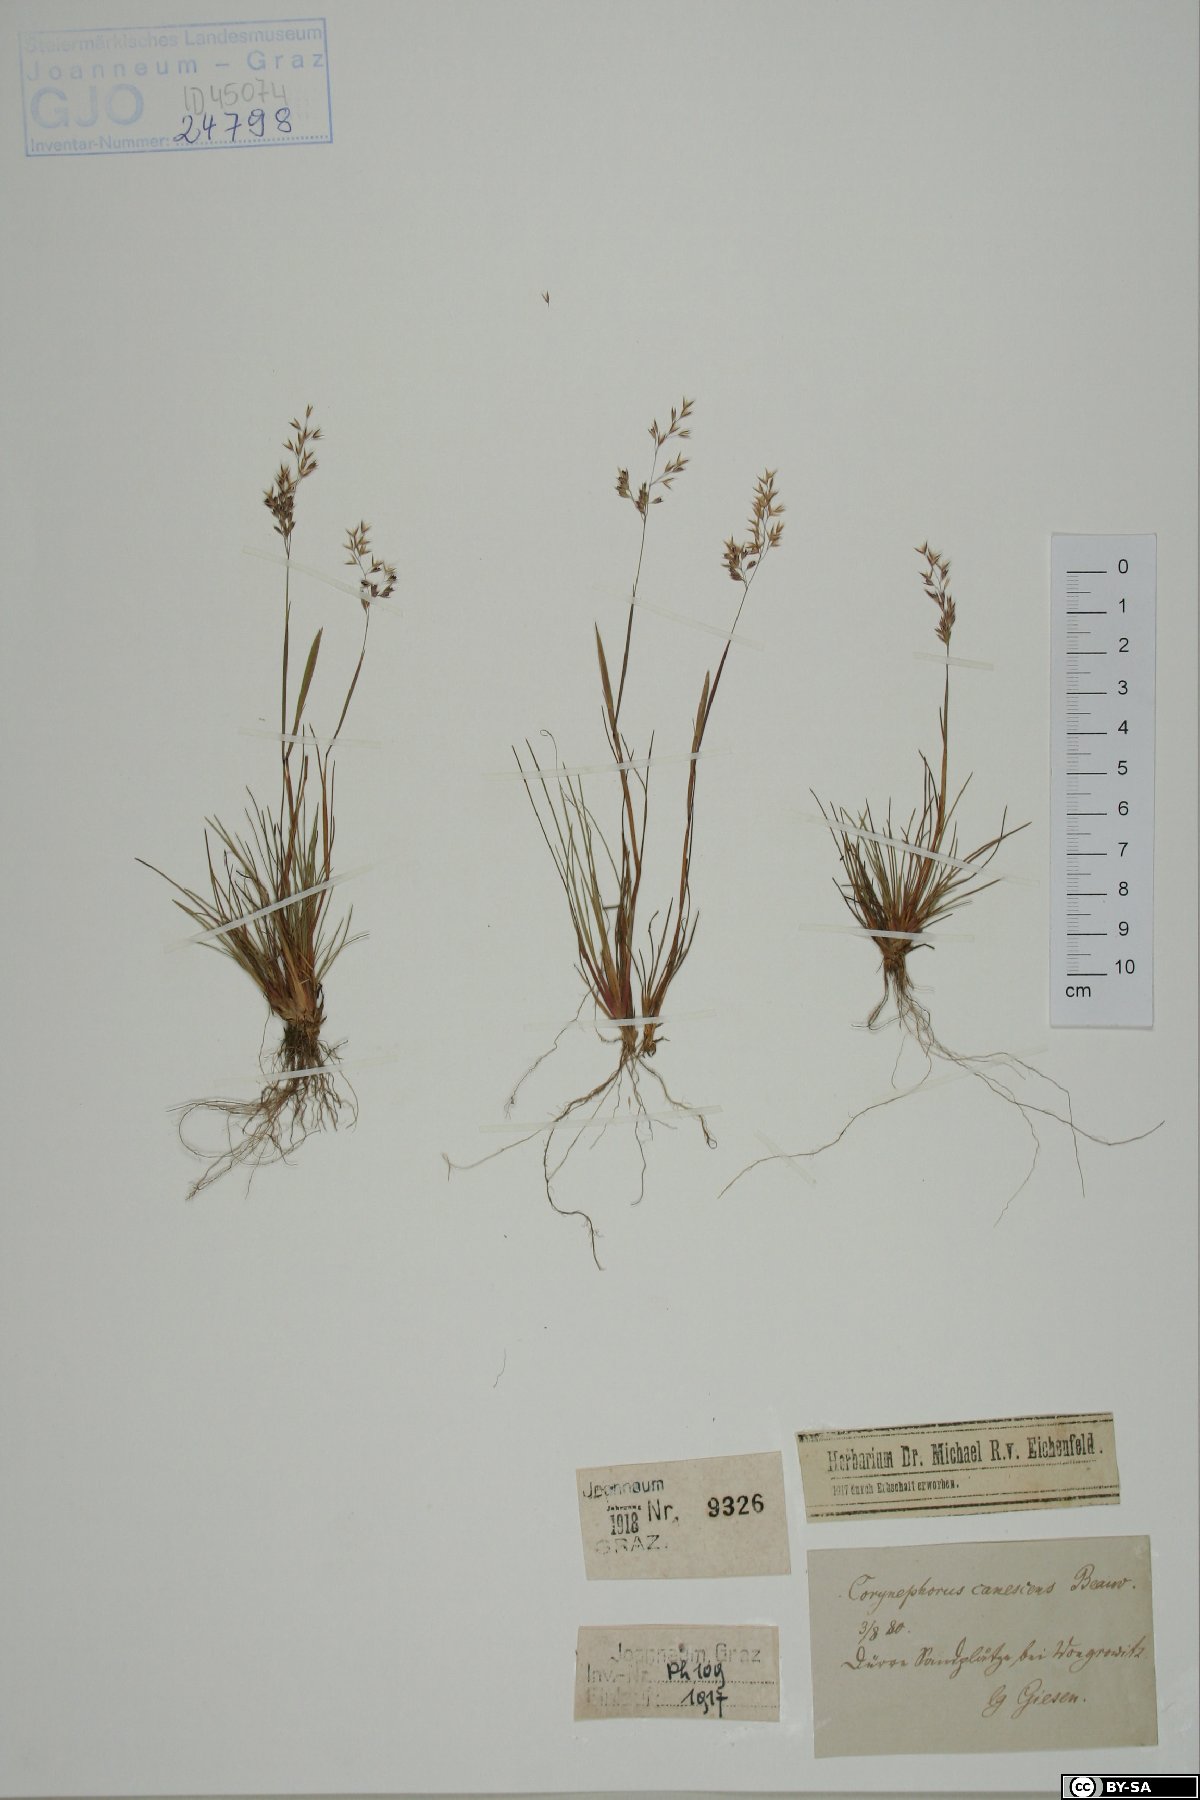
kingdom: Plantae
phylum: Tracheophyta
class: Liliopsida
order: Poales
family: Poaceae
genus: Corynephorus
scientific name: Corynephorus canescens
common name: Grey hair-grass
